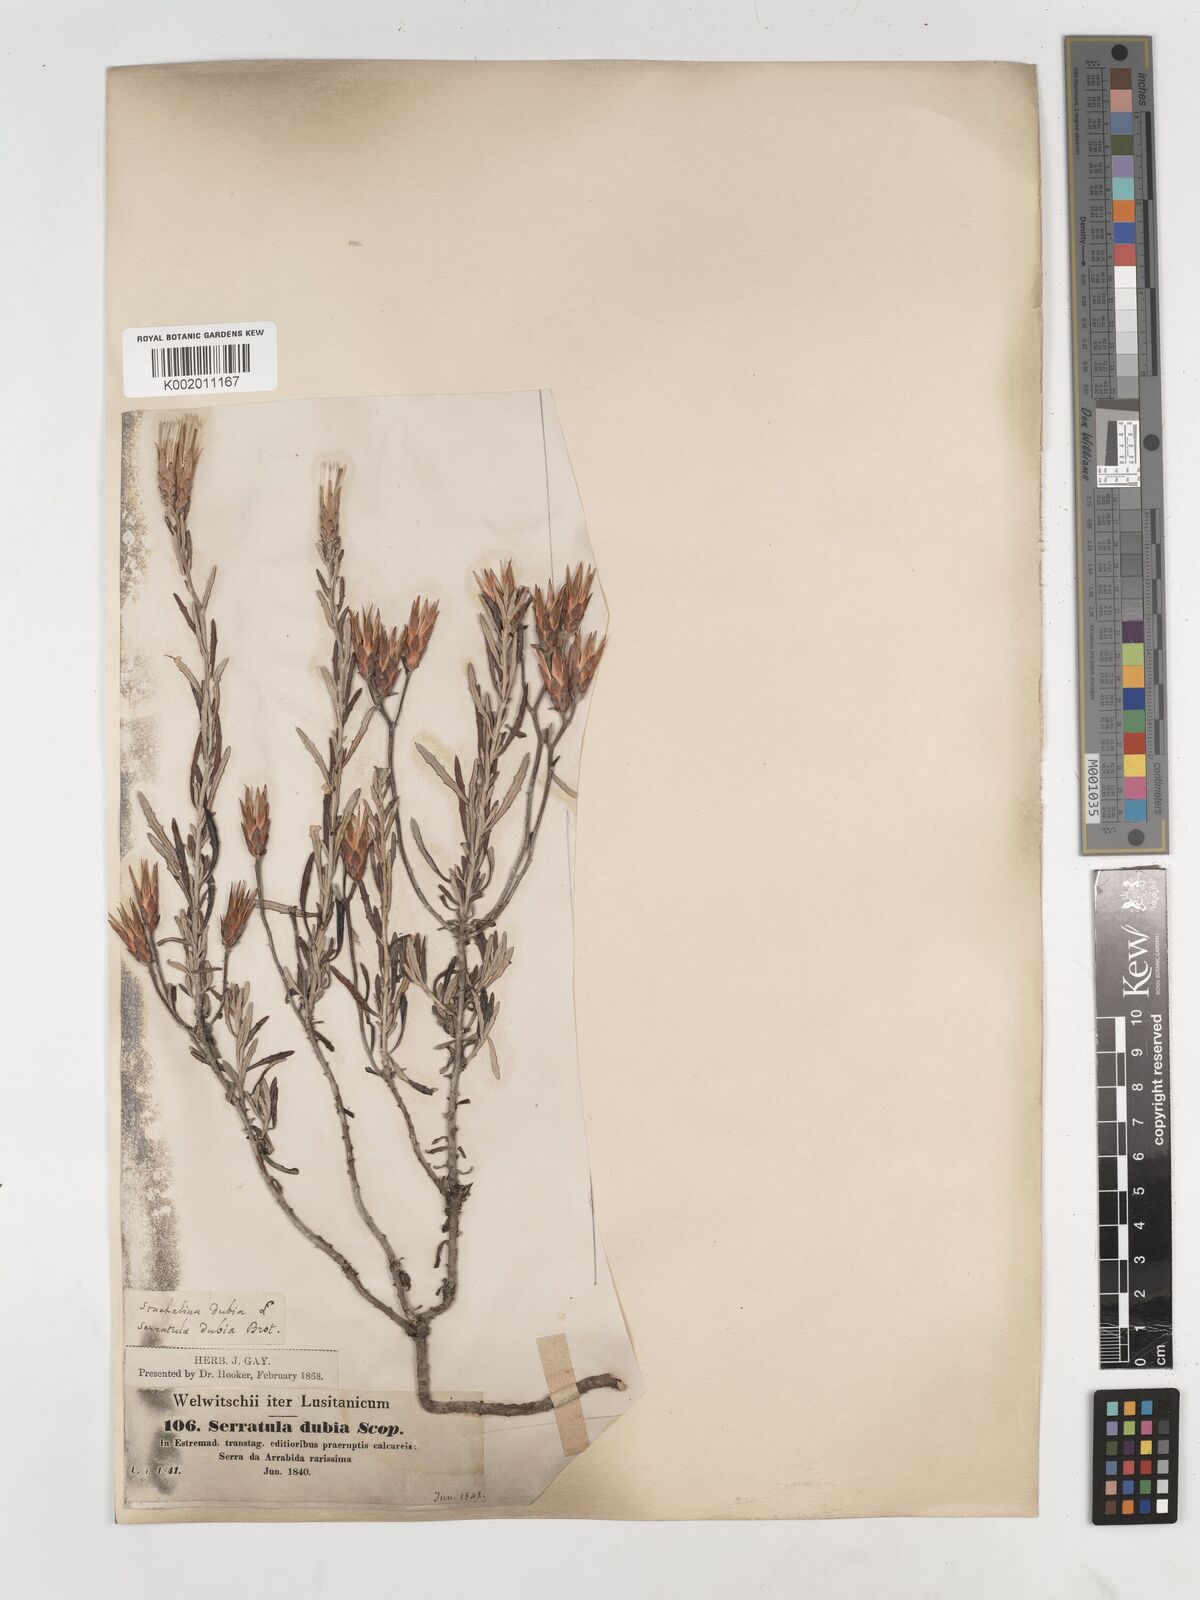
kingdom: Plantae
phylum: Tracheophyta
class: Magnoliopsida
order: Asterales
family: Asteraceae
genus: Staehelina
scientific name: Staehelina dubia
